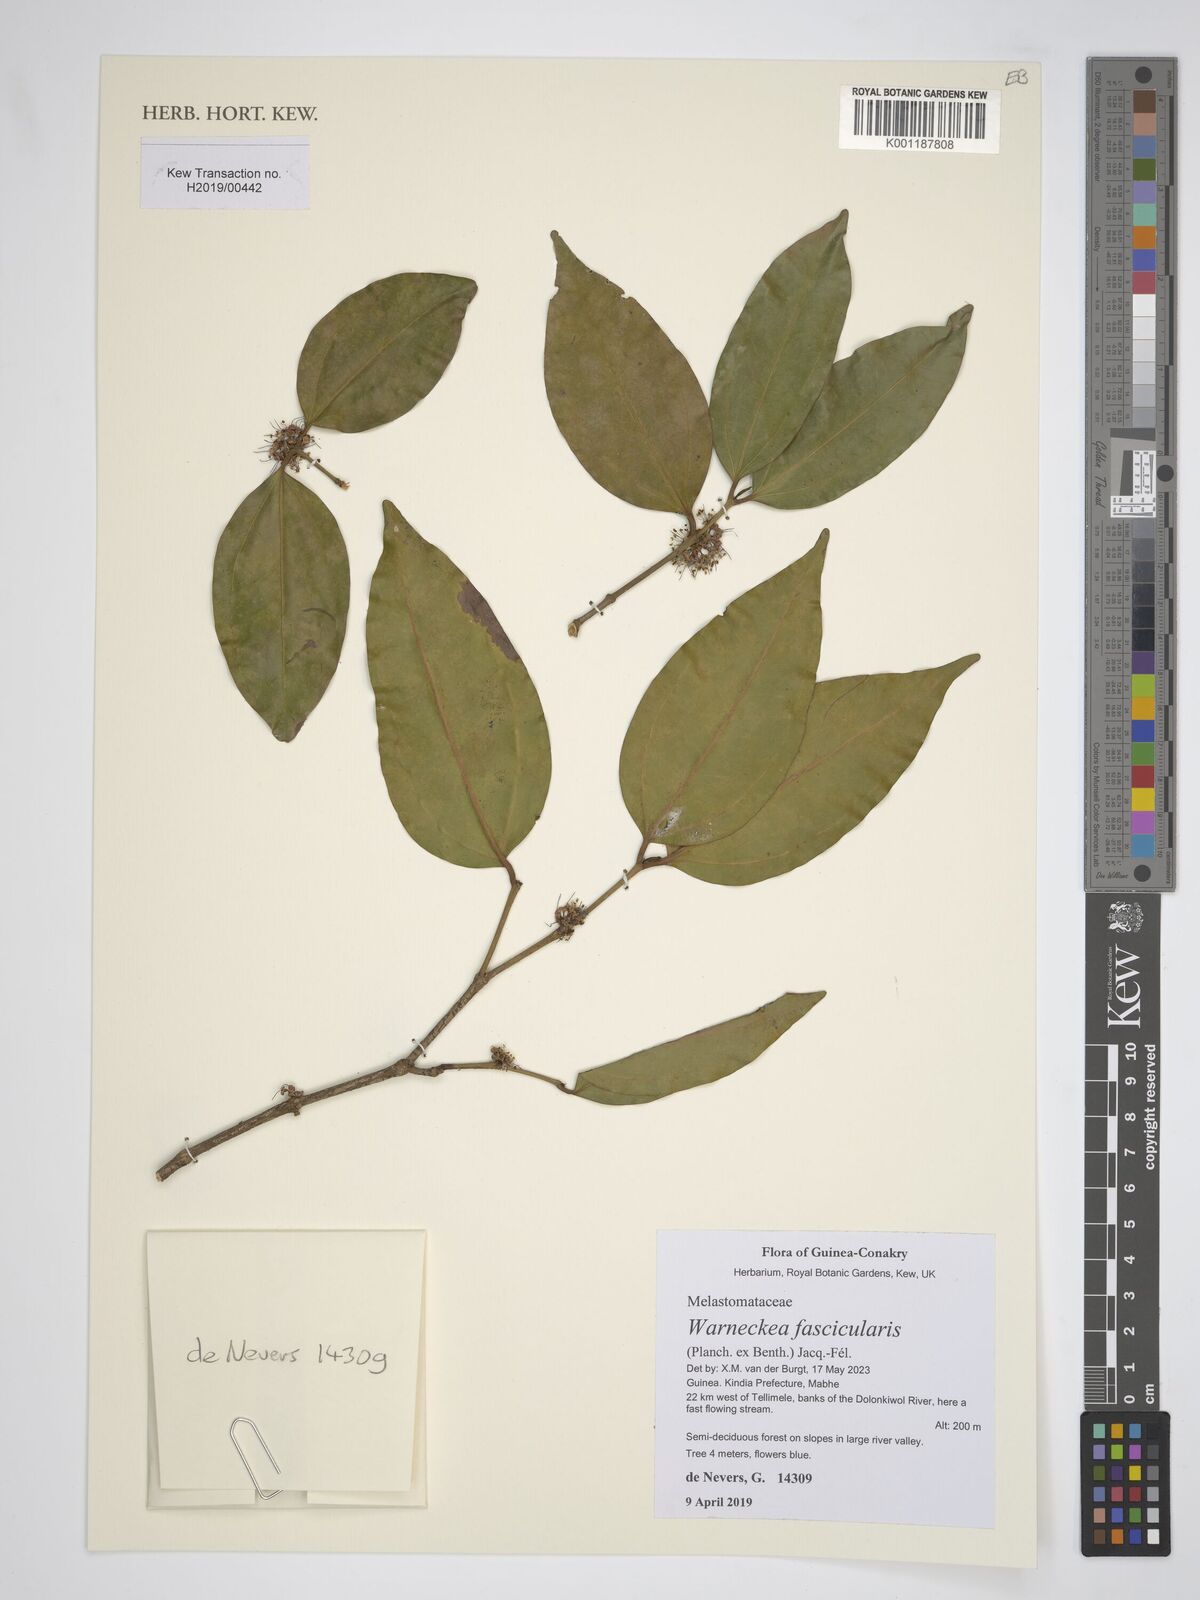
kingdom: Plantae
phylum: Tracheophyta
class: Magnoliopsida
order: Myrtales
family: Melastomataceae
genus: Warneckea
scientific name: Warneckea fascicularis
